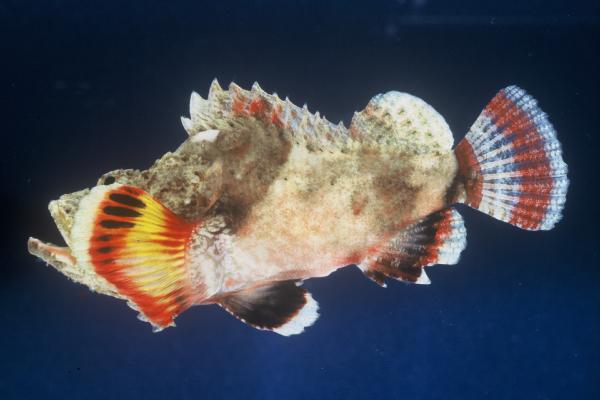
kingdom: Animalia
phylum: Chordata
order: Scorpaeniformes
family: Scorpaenidae
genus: Scorpaenopsis
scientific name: Scorpaenopsis diabolus
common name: False stonefish
